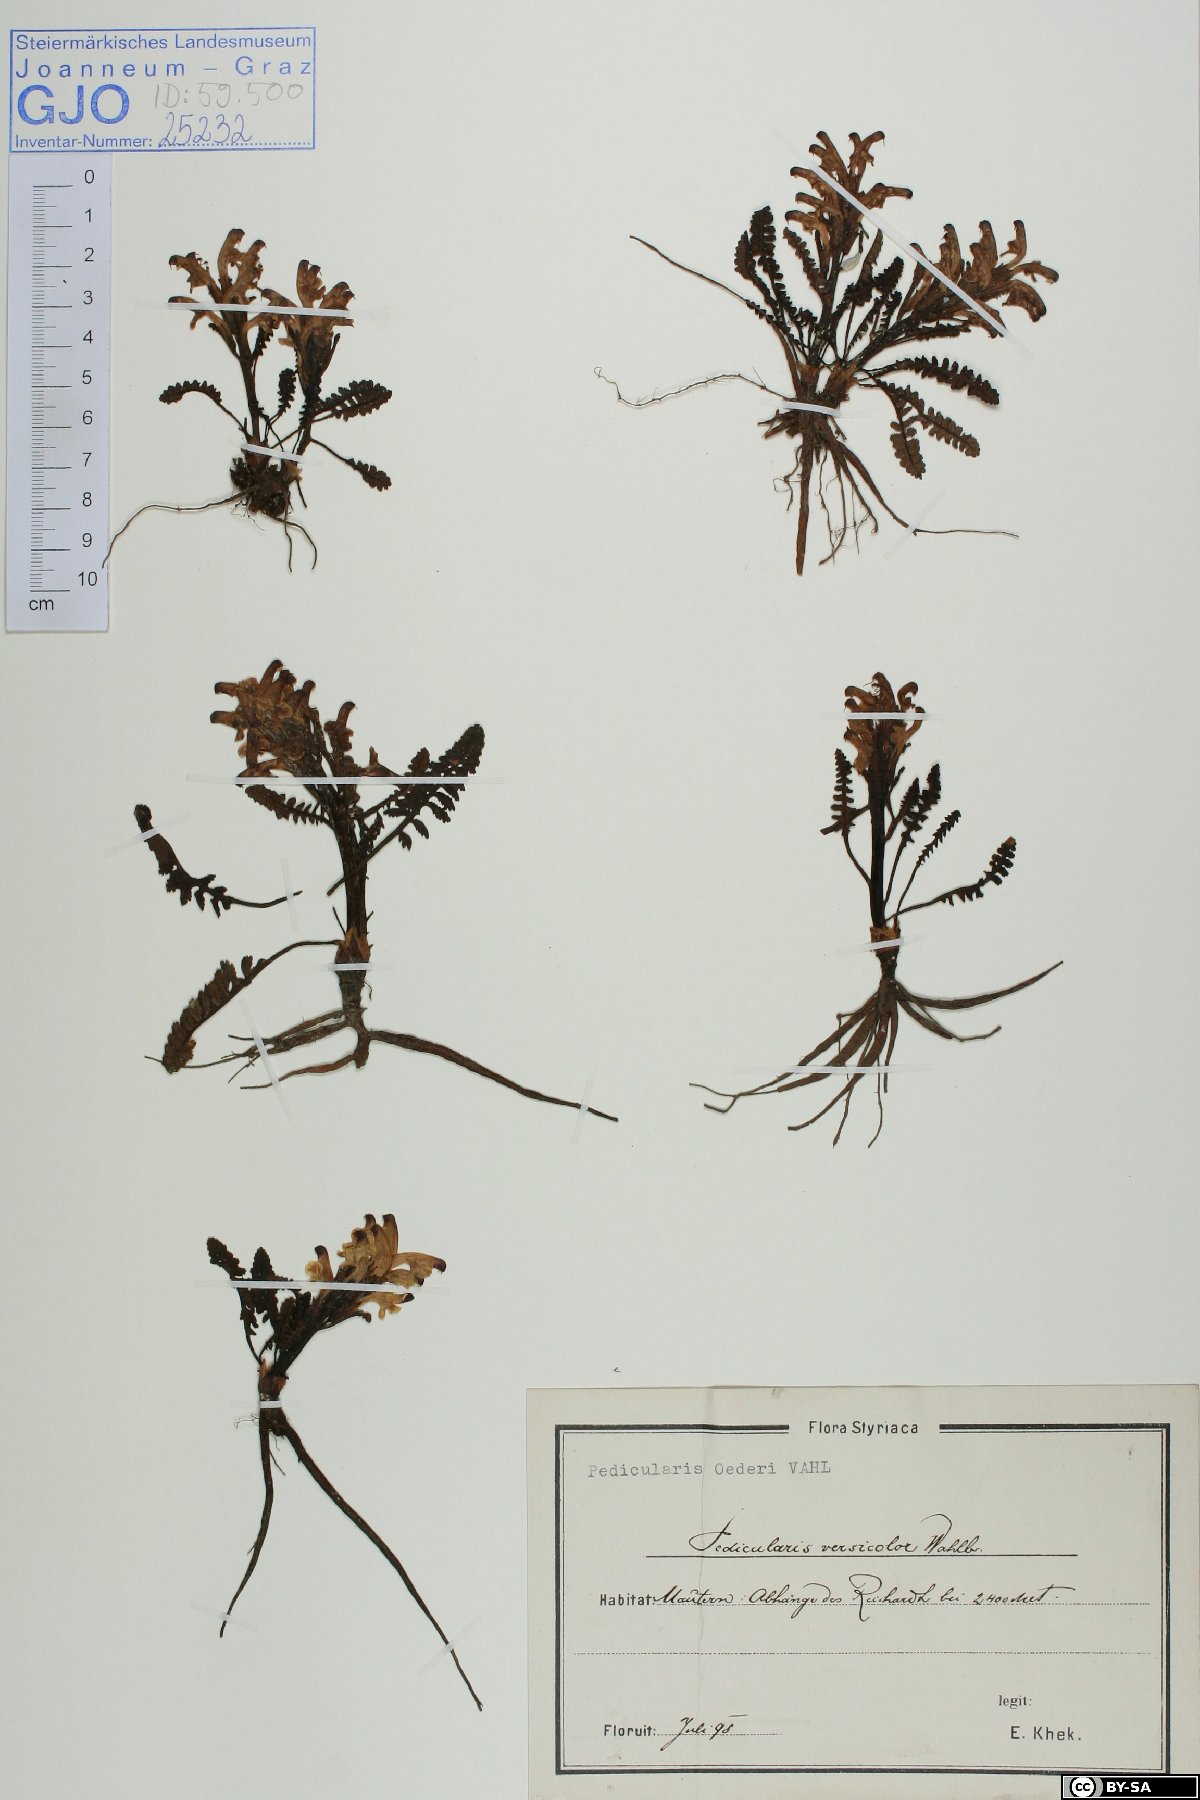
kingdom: Plantae
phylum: Tracheophyta
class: Magnoliopsida
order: Lamiales
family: Orobanchaceae
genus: Pedicularis
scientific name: Pedicularis oederi
